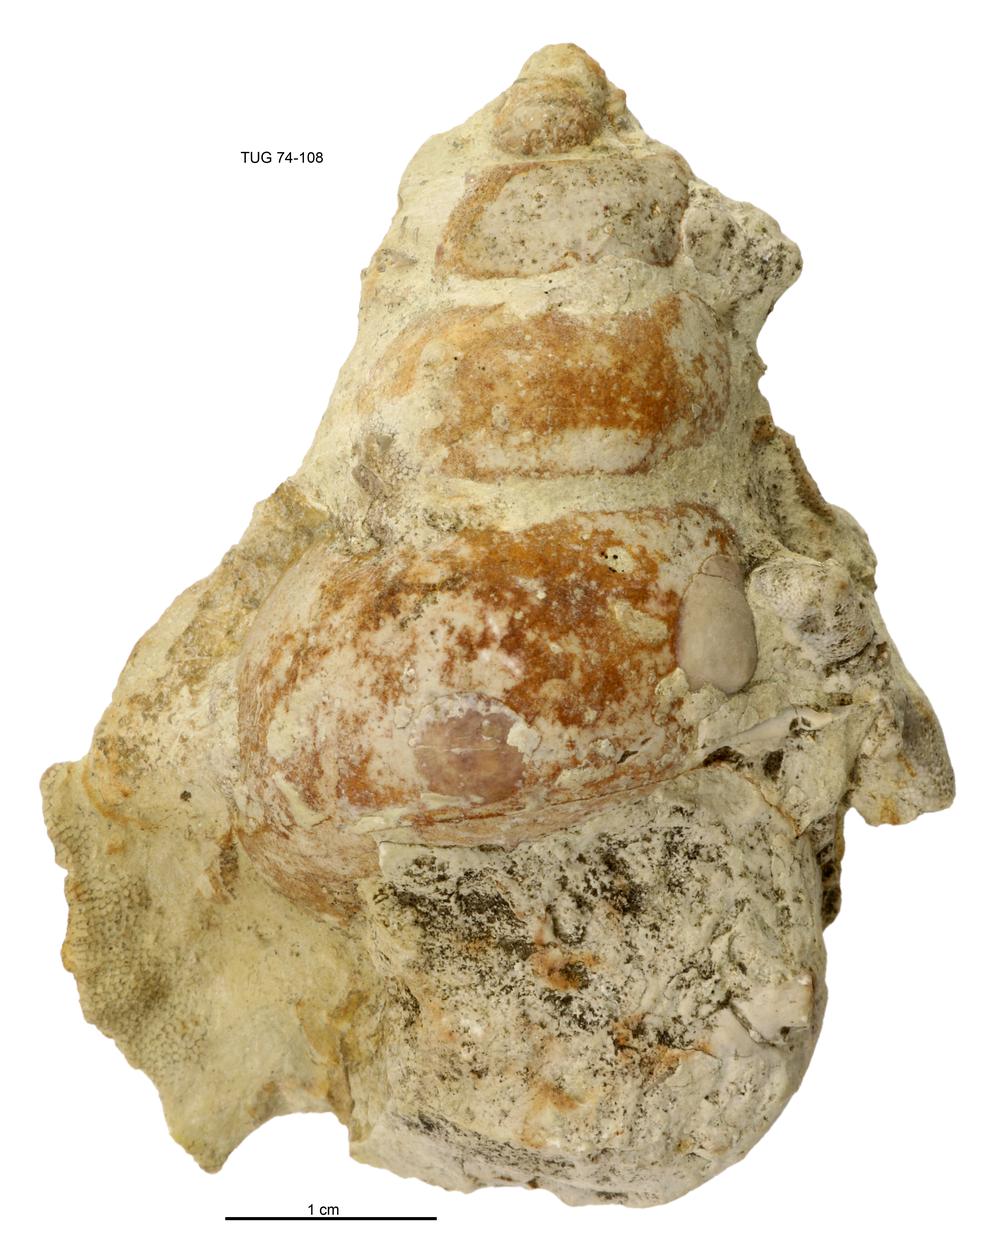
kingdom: Animalia
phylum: Mollusca
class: Gastropoda
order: Pleurotomariida
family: Murchisoniidae
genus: Murchisonia
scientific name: Murchisonia insignis
